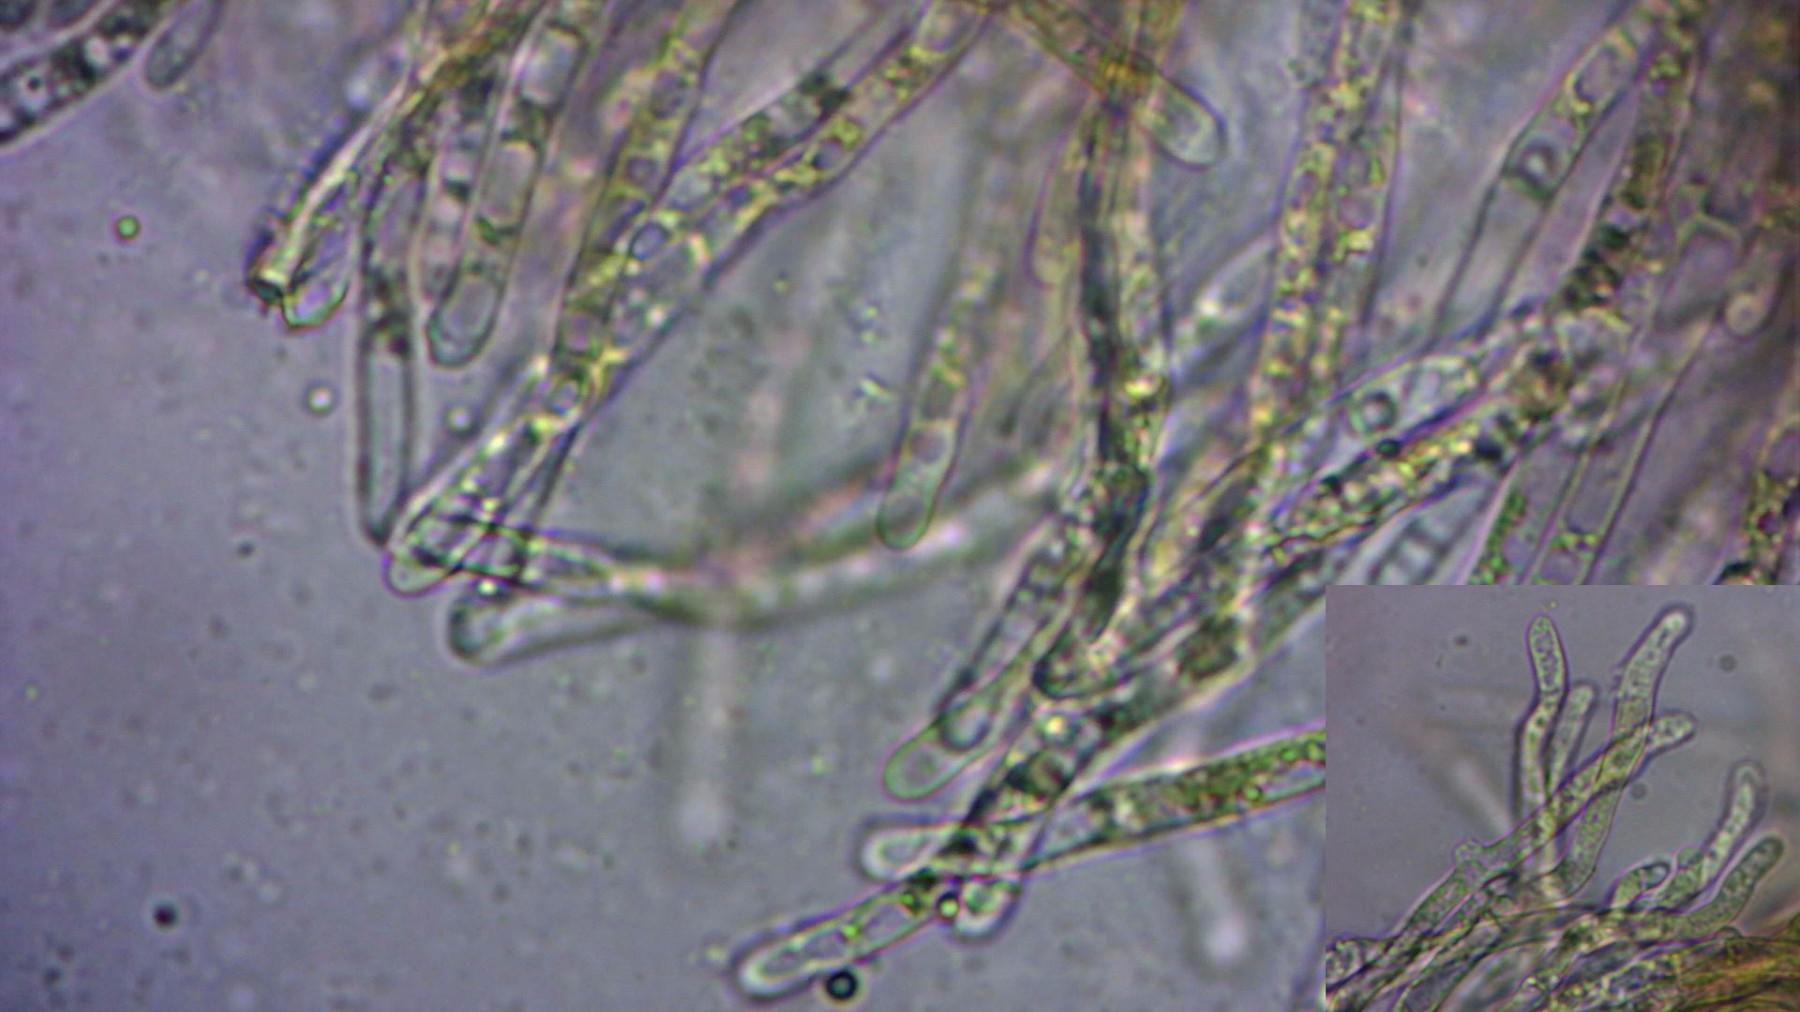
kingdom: Fungi
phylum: Basidiomycota
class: Agaricomycetes
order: Cantharellales
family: Hydnaceae
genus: Cantharellus
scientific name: Cantharellus pallens
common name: bleg kantarel
